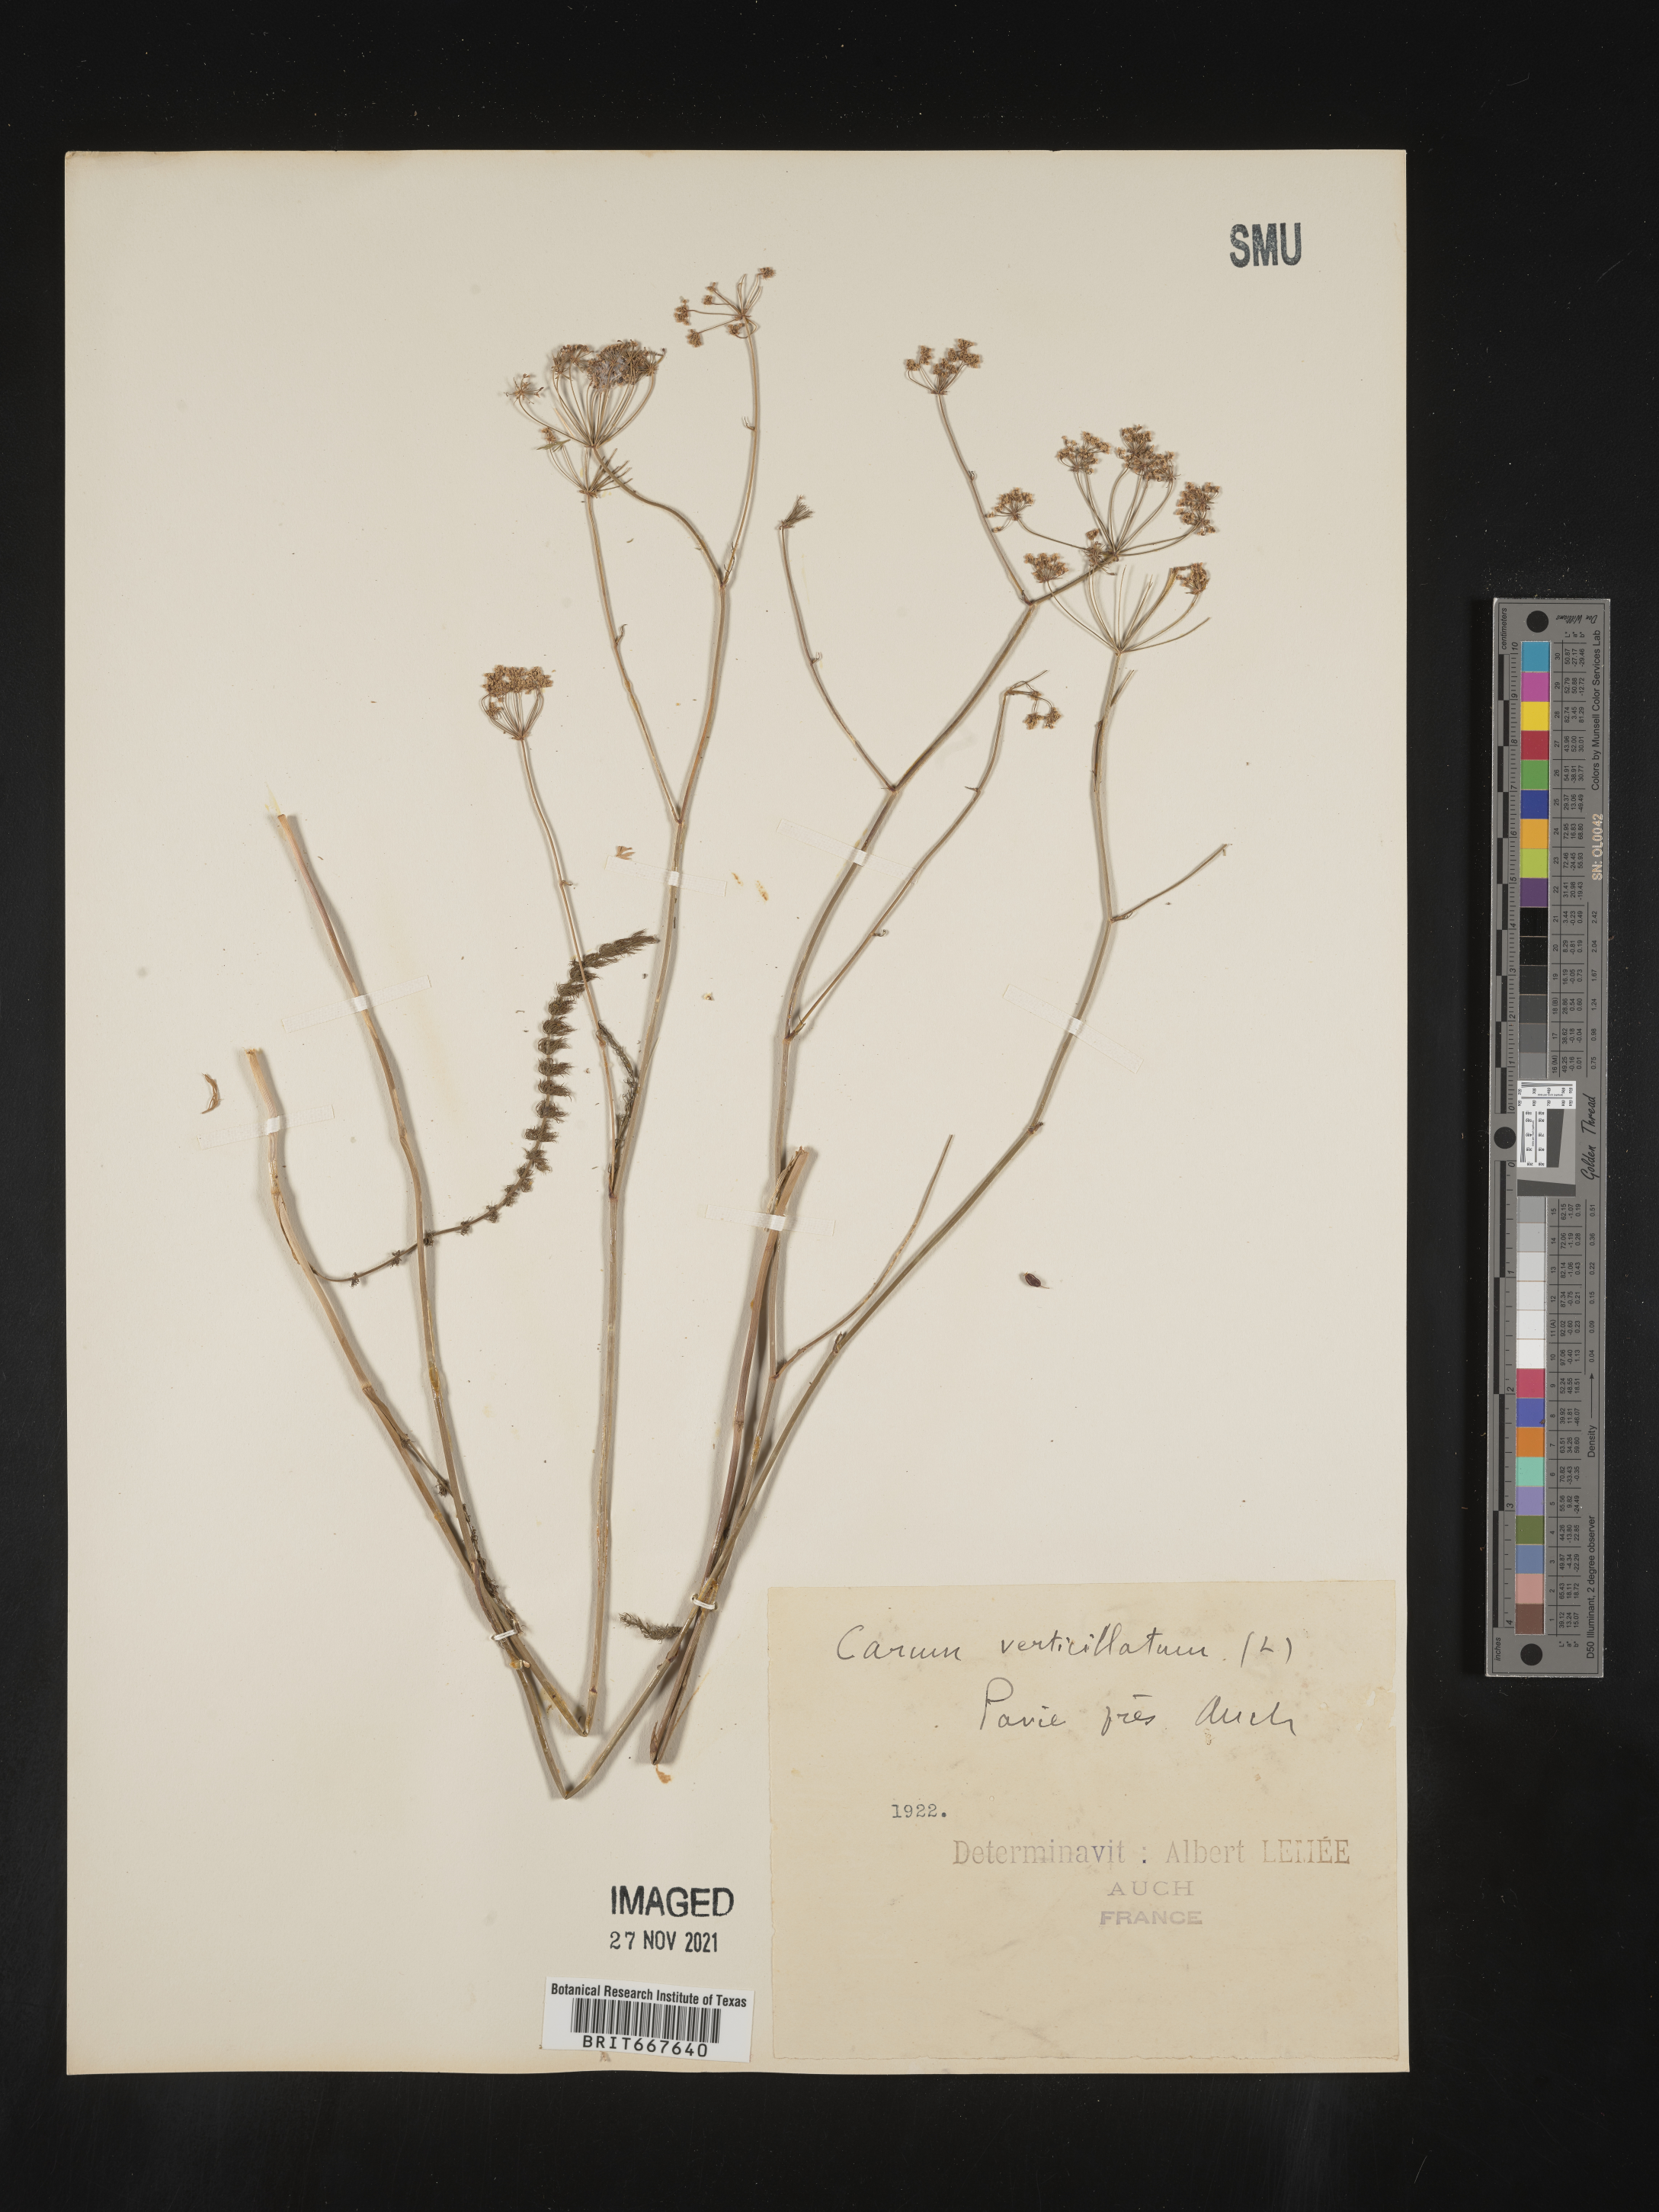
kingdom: Plantae
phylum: Tracheophyta
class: Magnoliopsida
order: Apiales
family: Apiaceae
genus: Carum
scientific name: Carum
